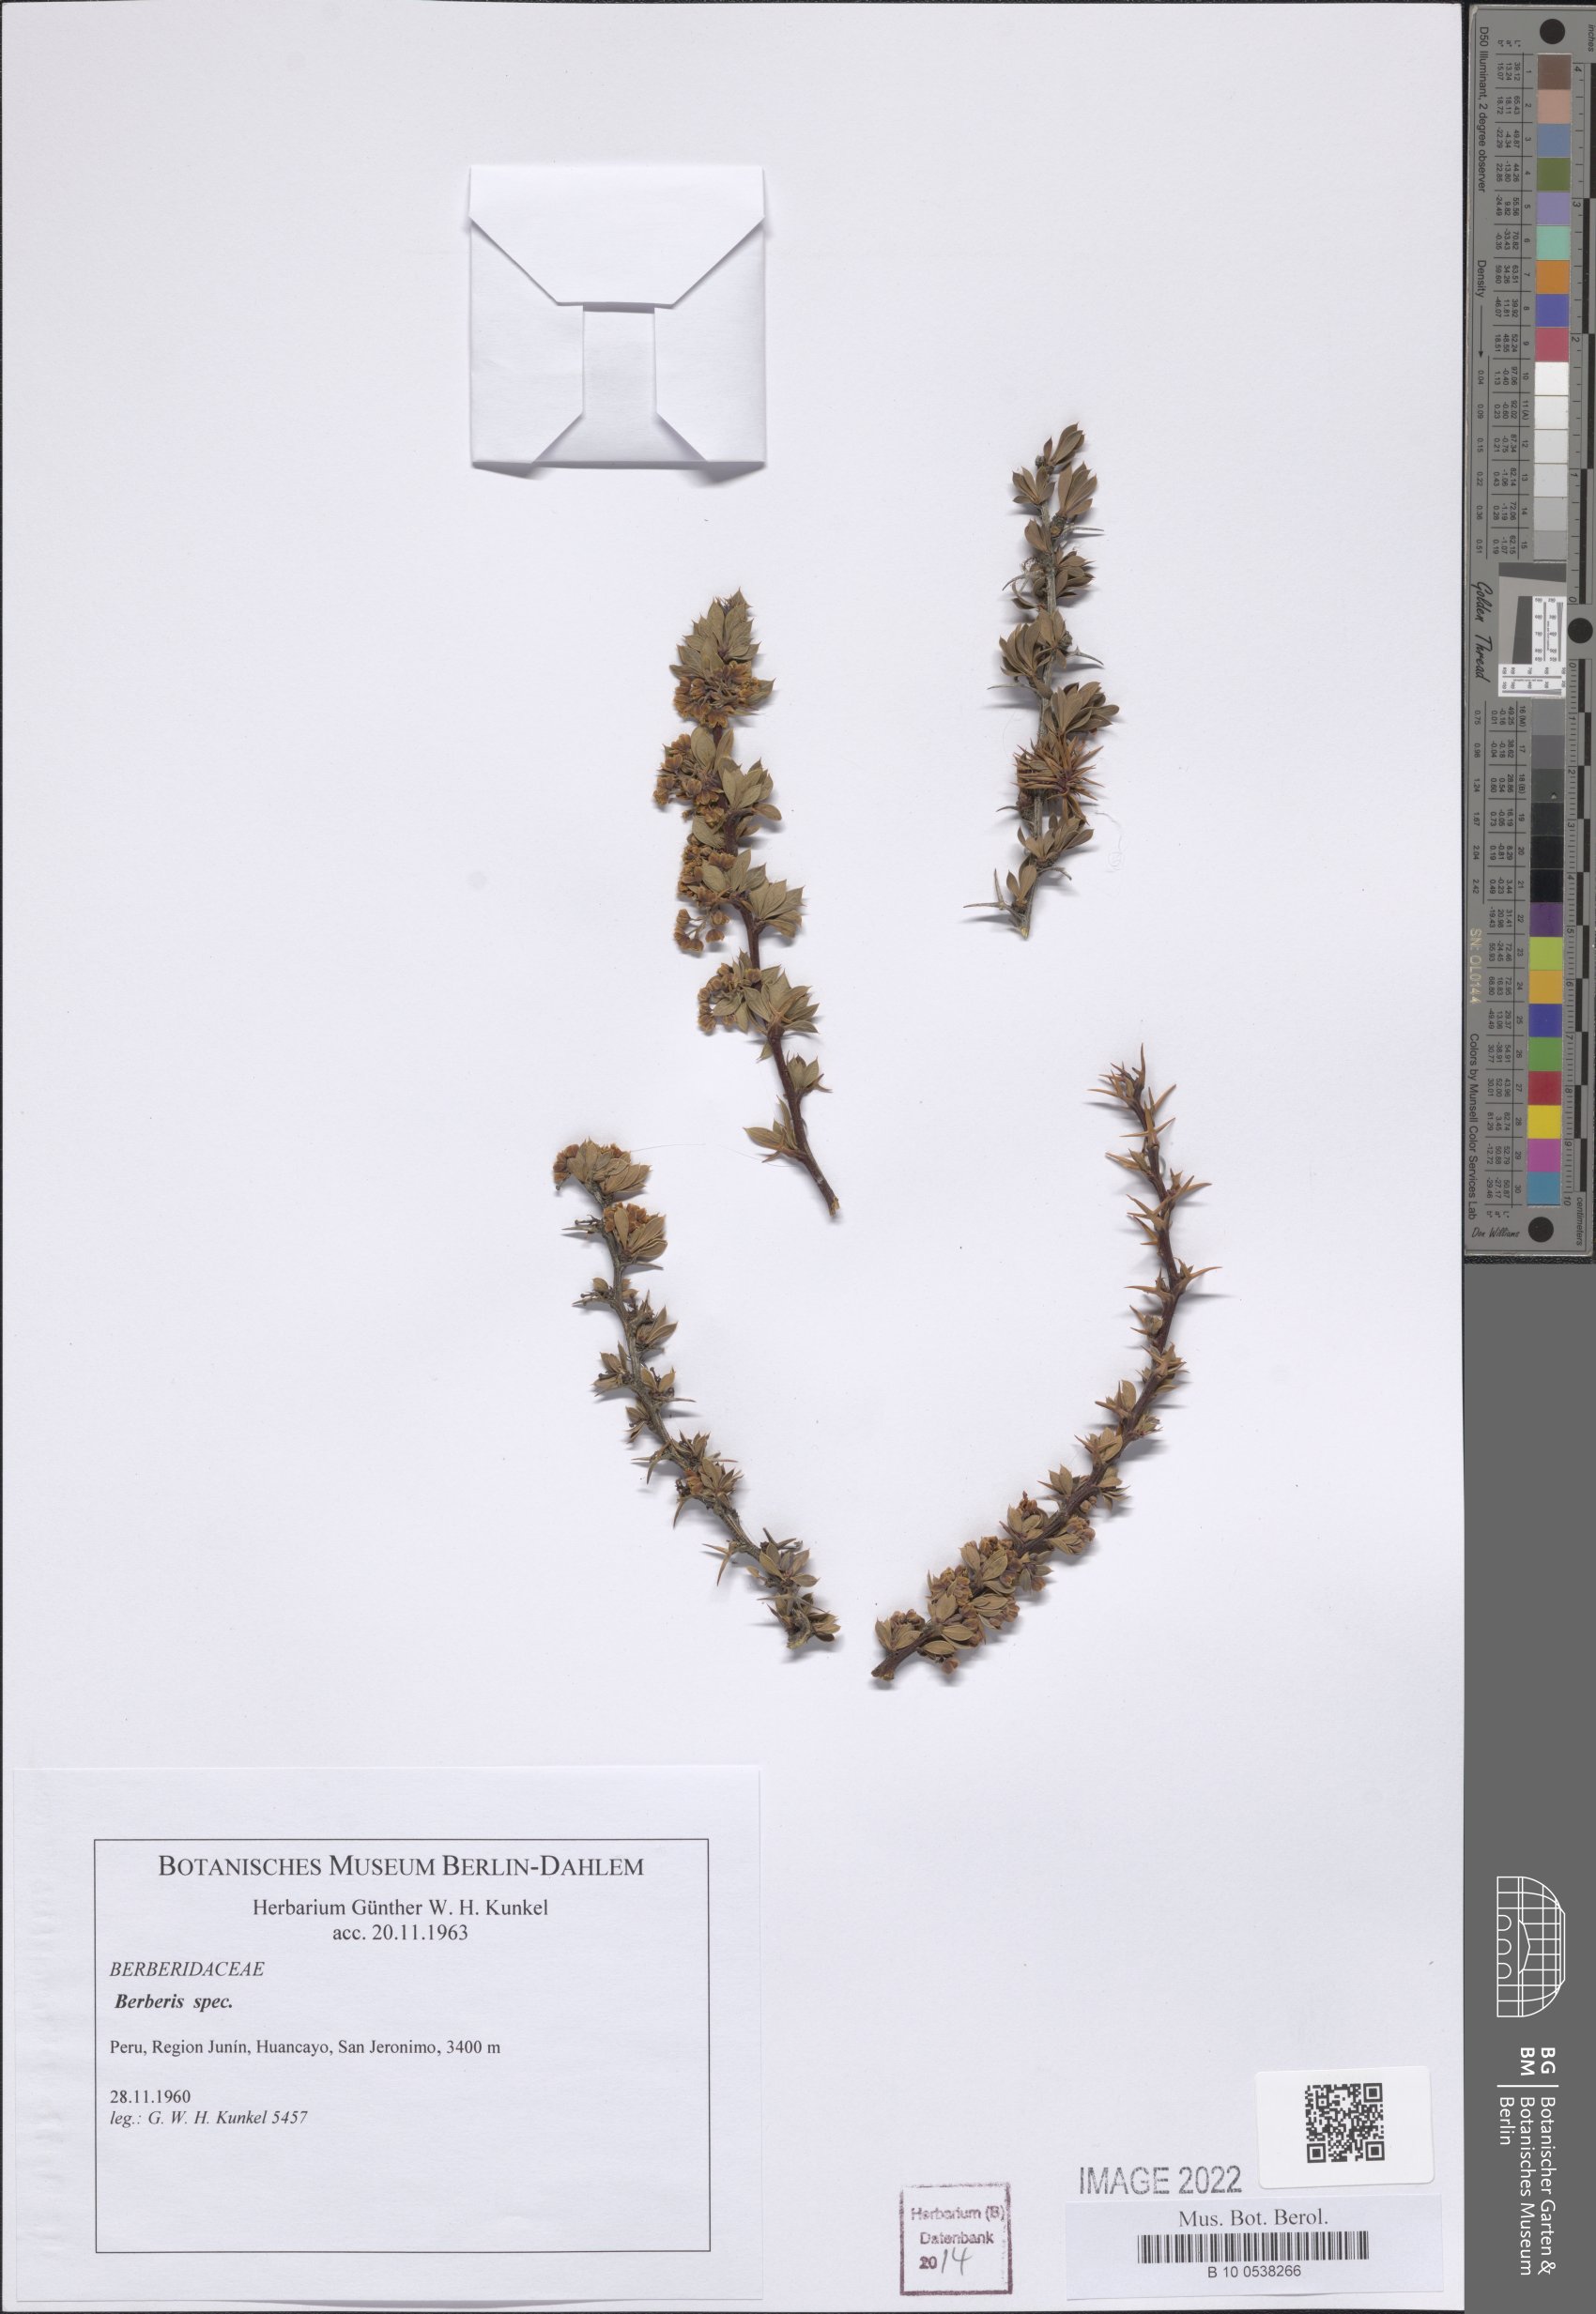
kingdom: Plantae
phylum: Tracheophyta
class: Magnoliopsida
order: Ranunculales
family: Berberidaceae
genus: Berberis
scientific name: Berberis
